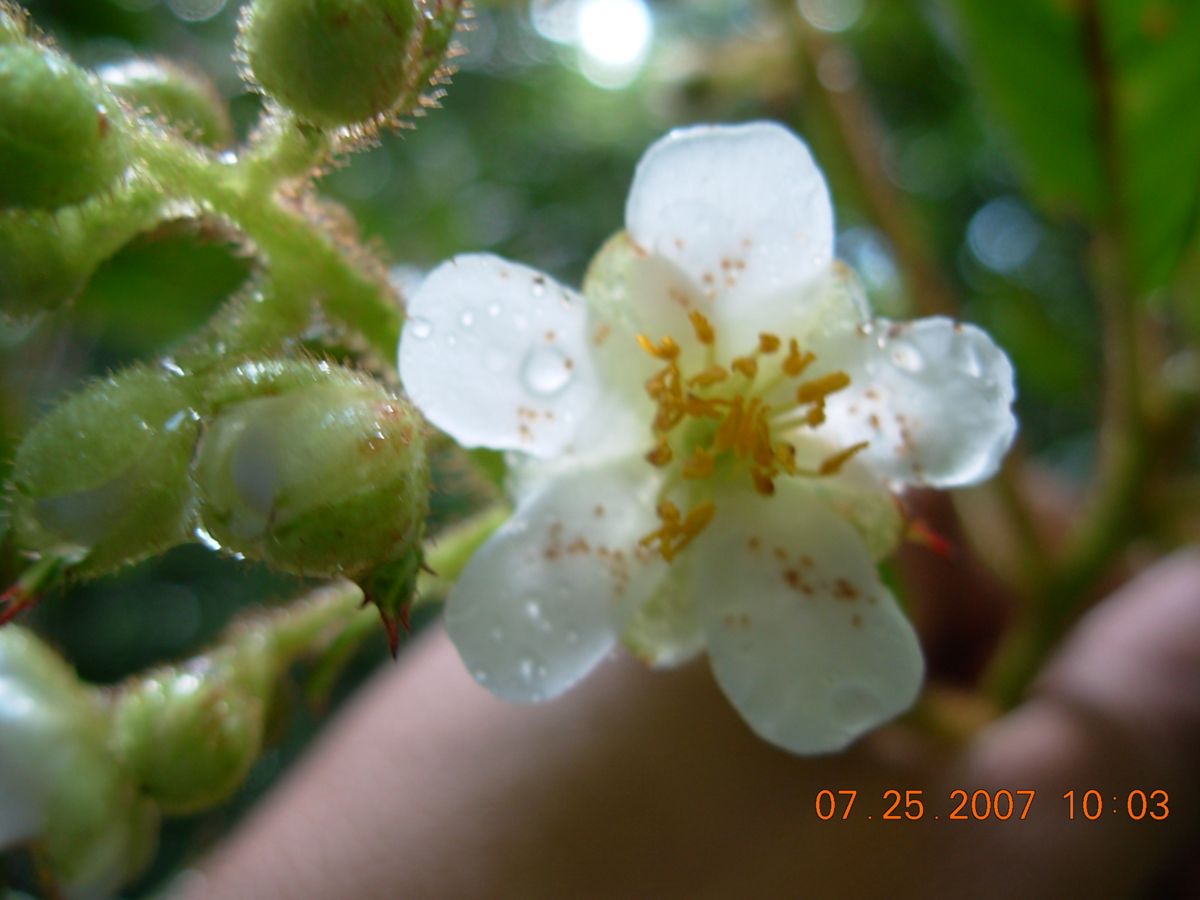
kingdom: Plantae
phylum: Tracheophyta
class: Magnoliopsida
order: Ericales
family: Actinidiaceae
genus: Saurauia
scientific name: Saurauia waldheimii
